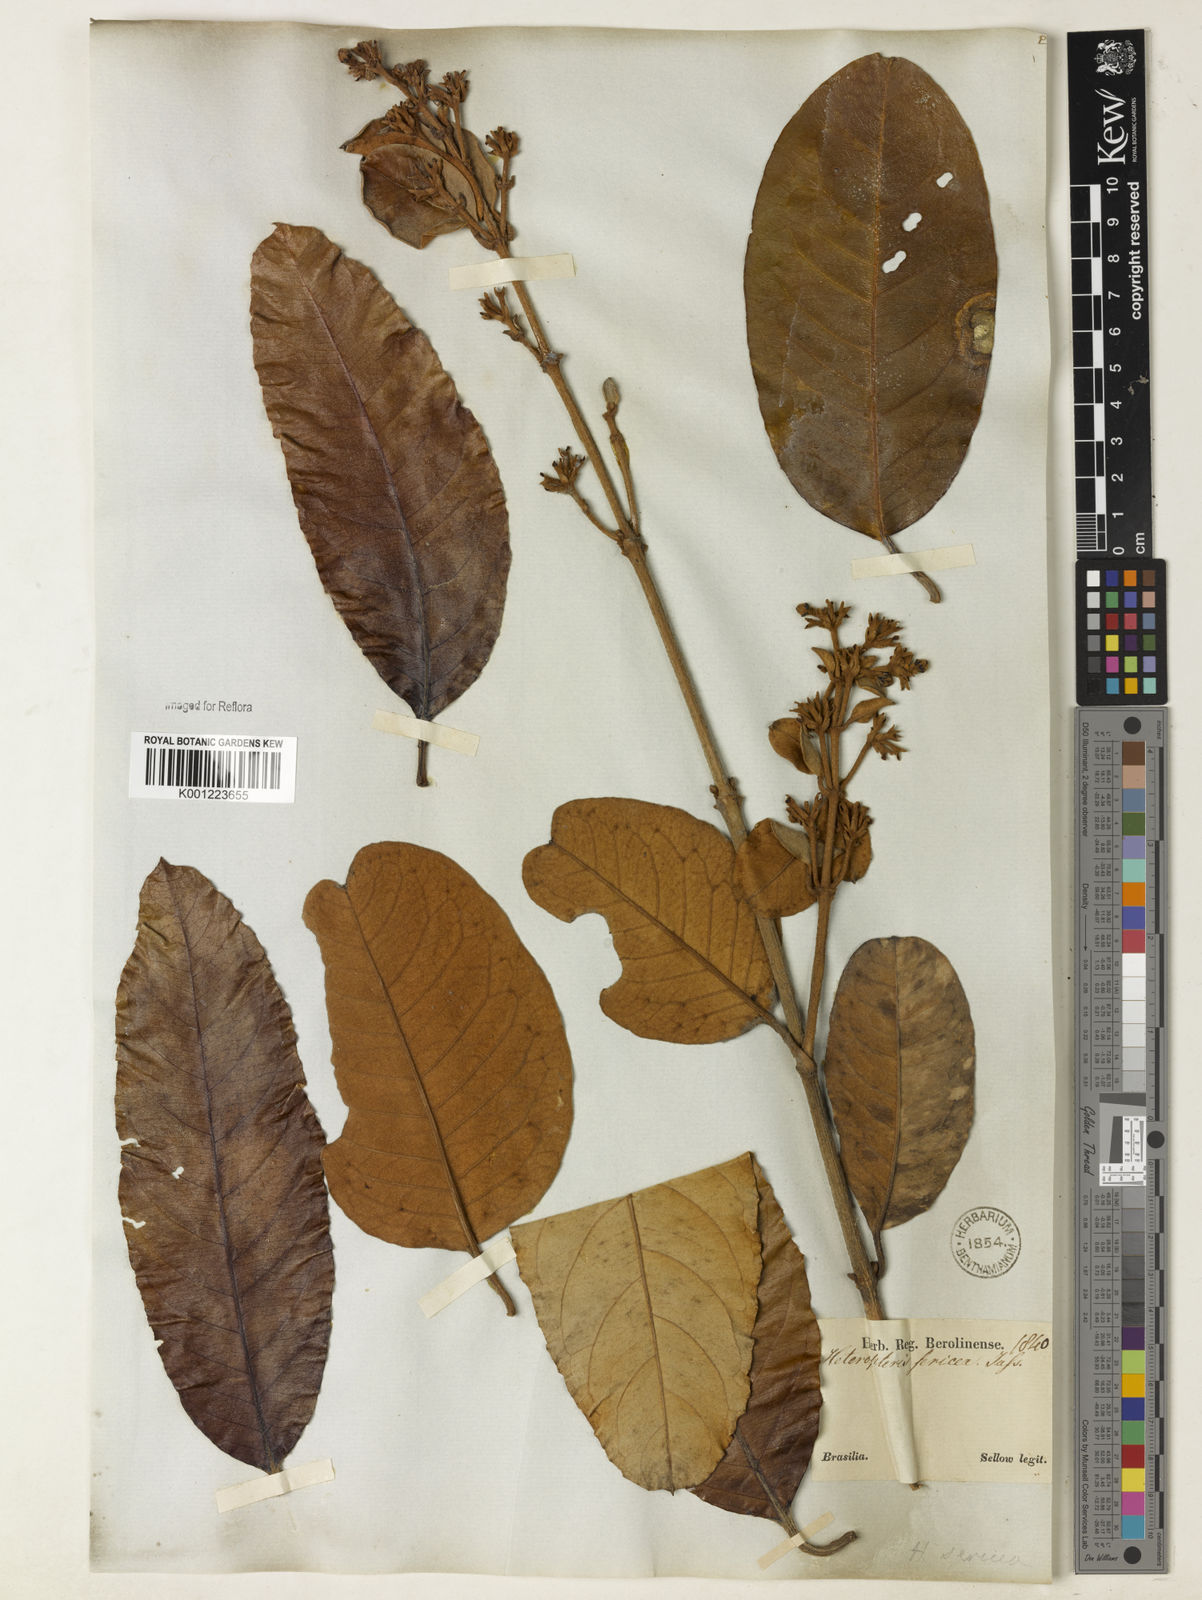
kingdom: Plantae
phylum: Tracheophyta
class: Magnoliopsida
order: Malpighiales
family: Malpighiaceae
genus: Heteropterys
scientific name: Heteropterys sericea
